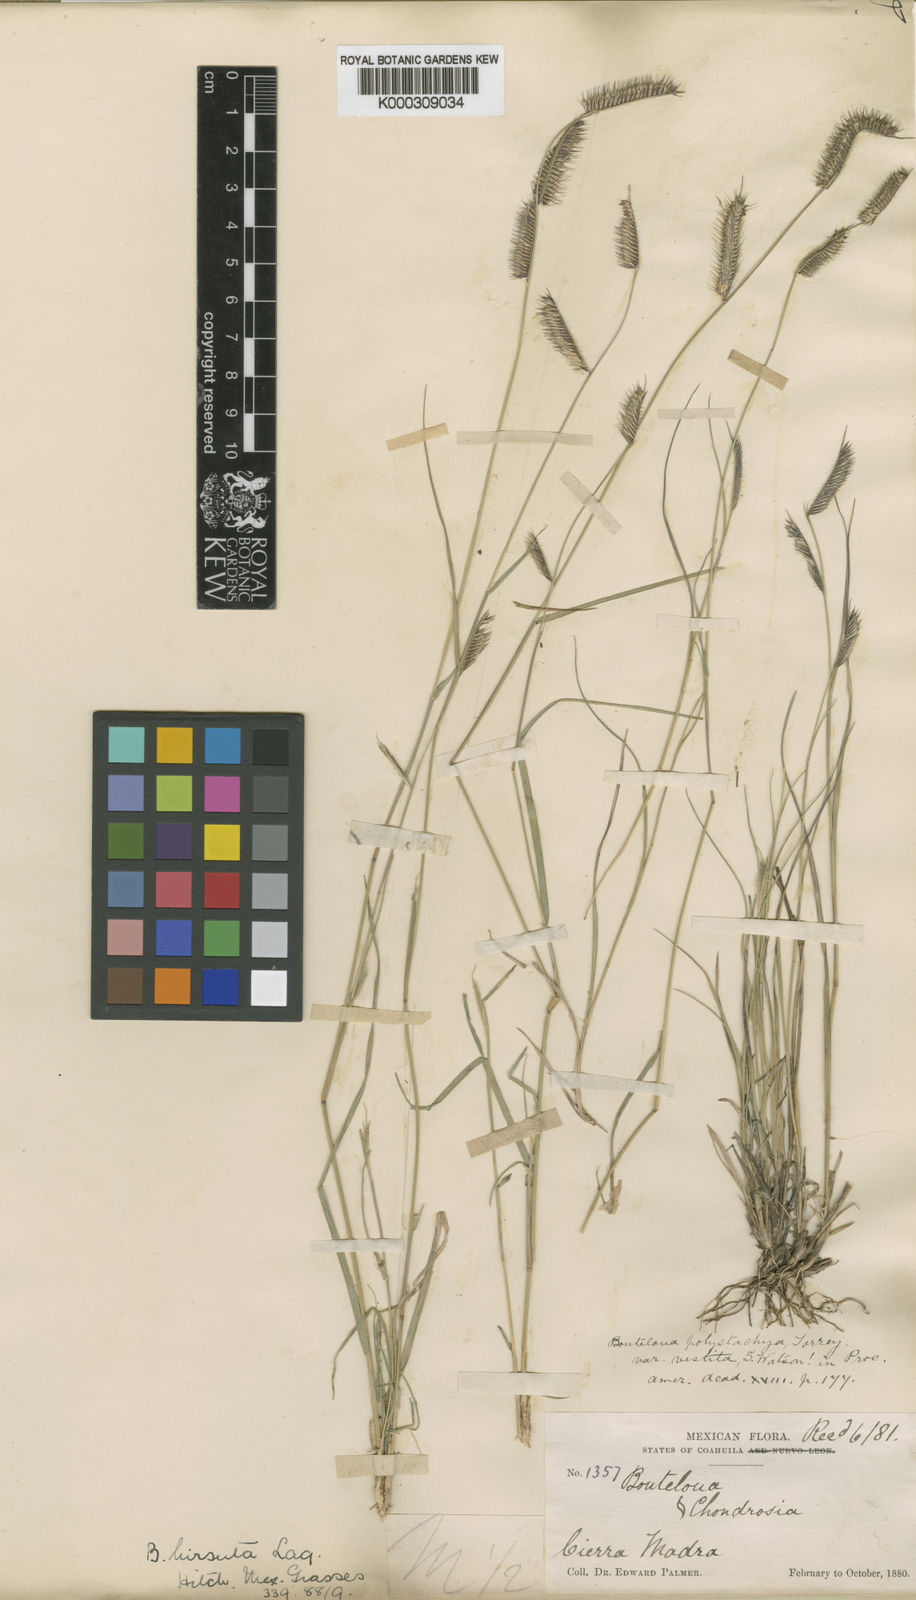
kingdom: Plantae
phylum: Tracheophyta
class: Liliopsida
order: Poales
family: Poaceae
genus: Bouteloua
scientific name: Bouteloua parryi
